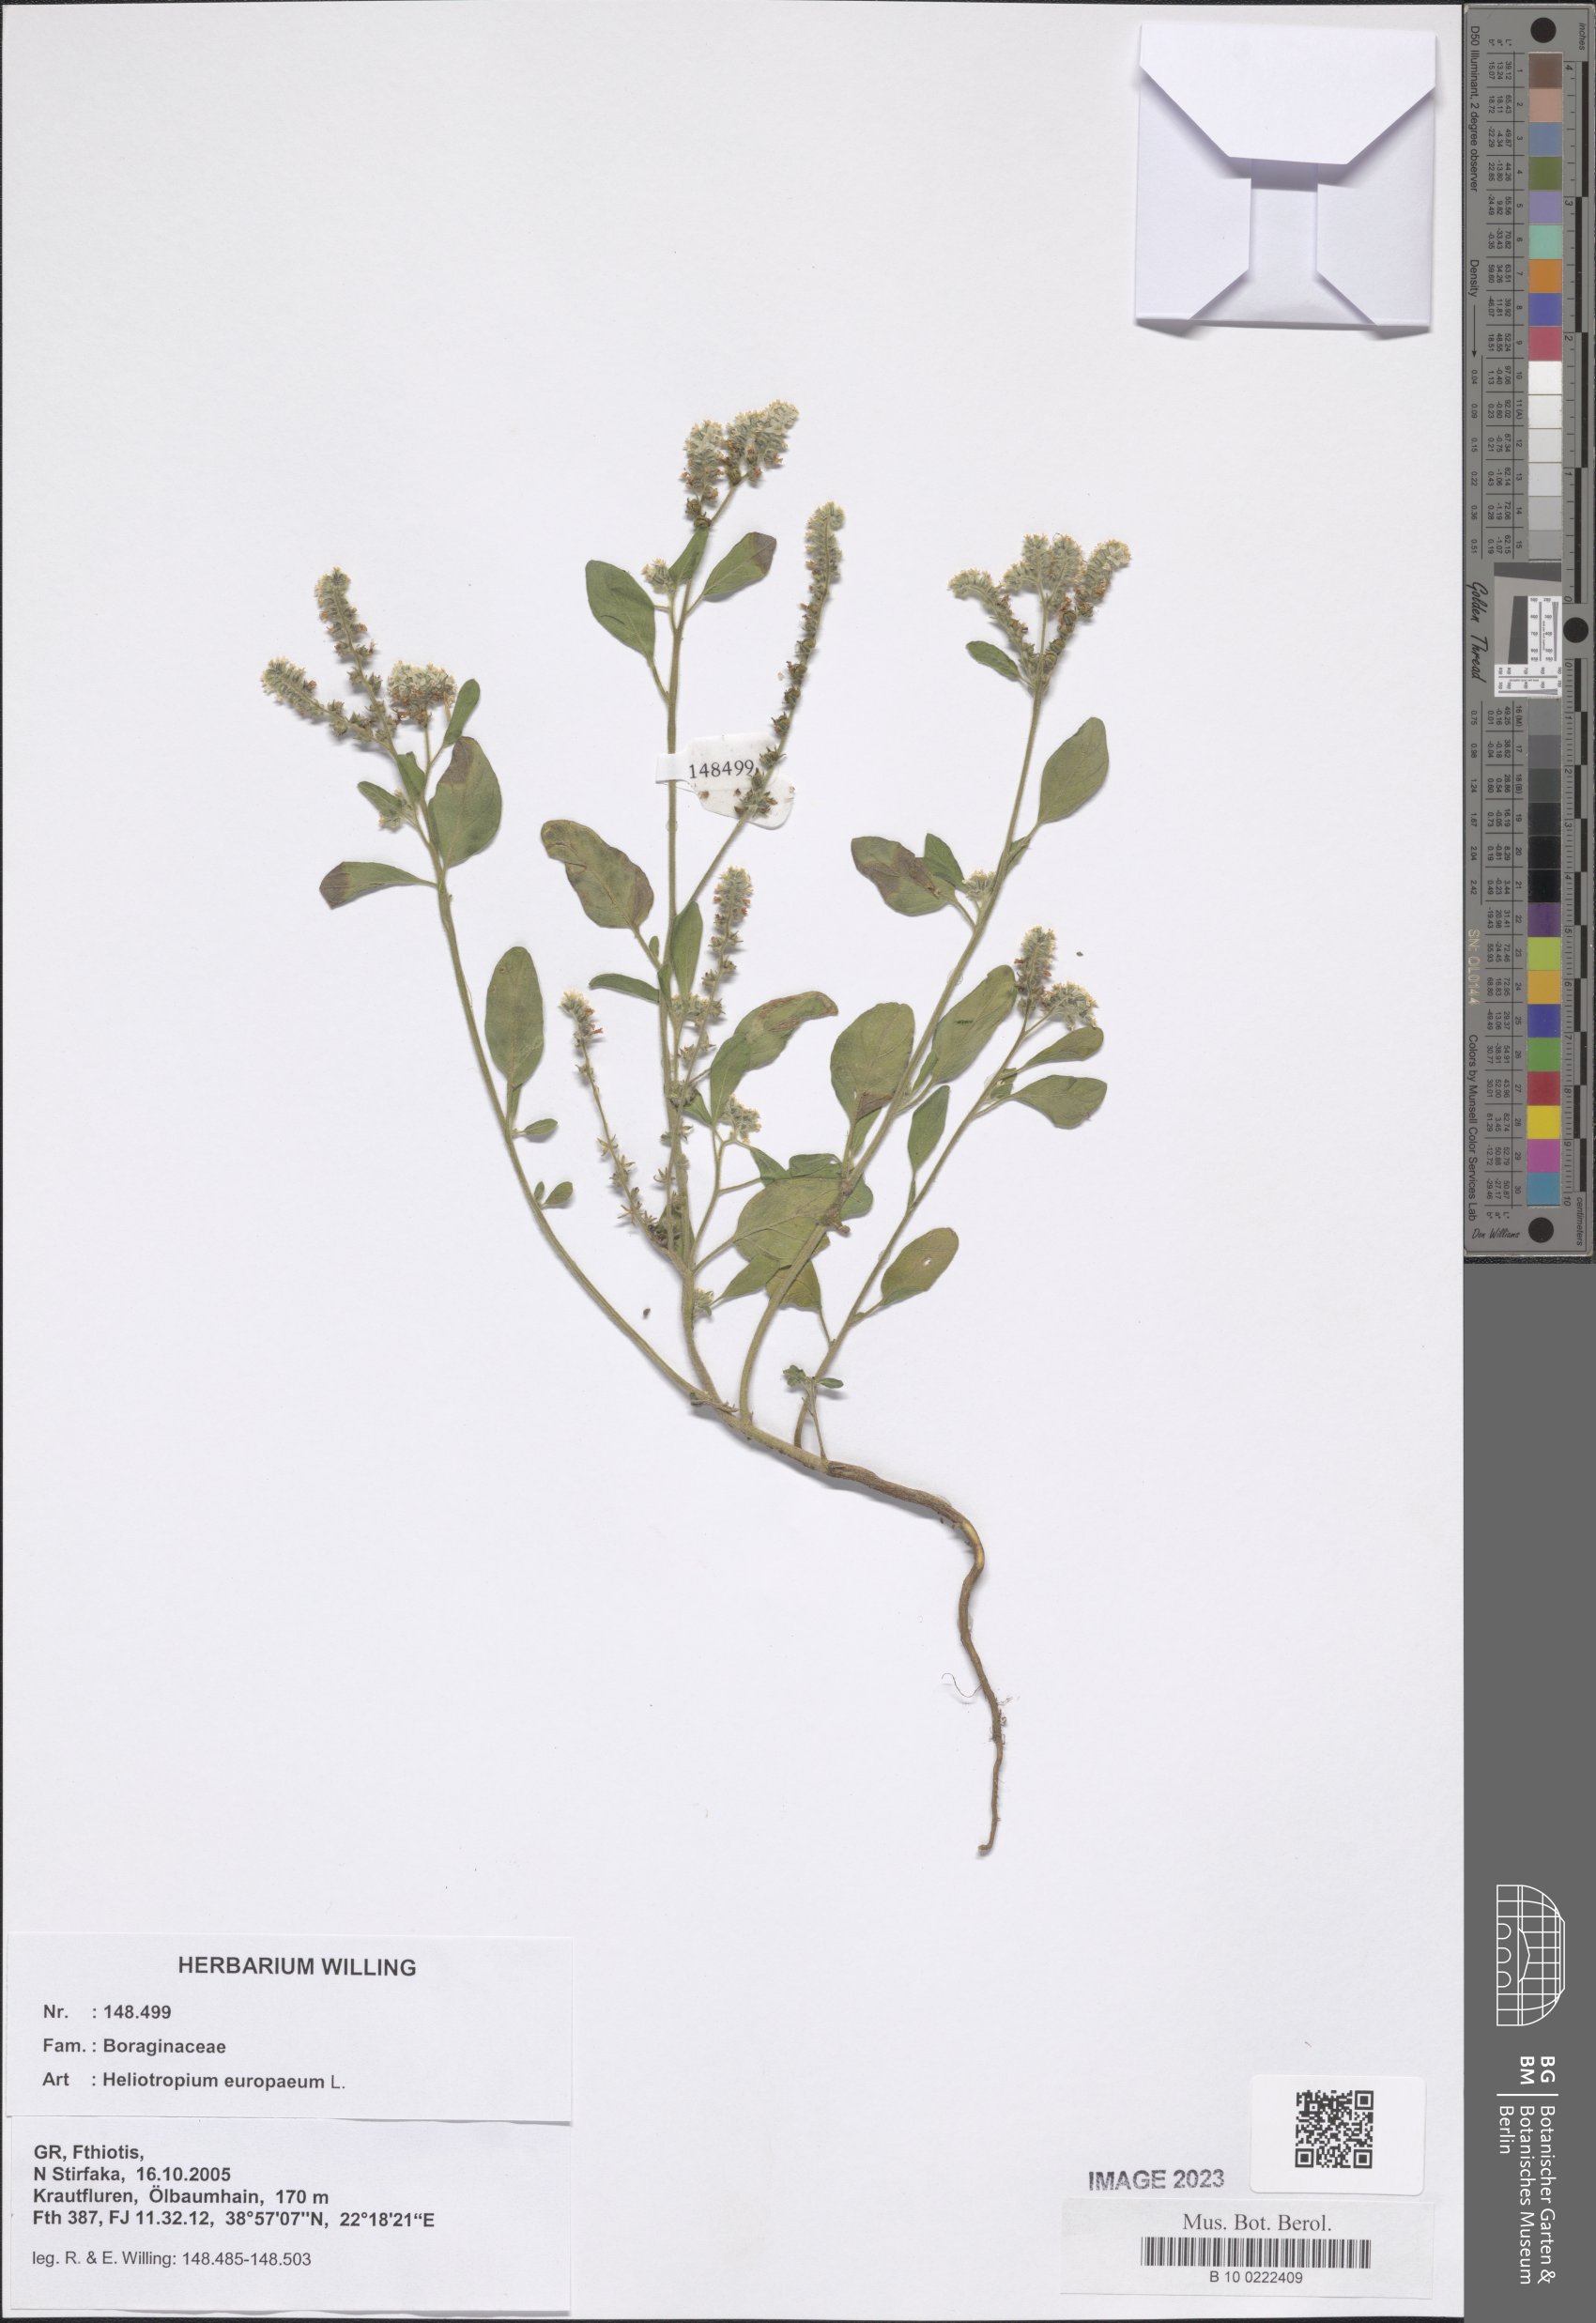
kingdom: Plantae
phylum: Tracheophyta
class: Magnoliopsida
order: Boraginales
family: Heliotropiaceae
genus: Heliotropium
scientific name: Heliotropium europaeum
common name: European heliotrope
